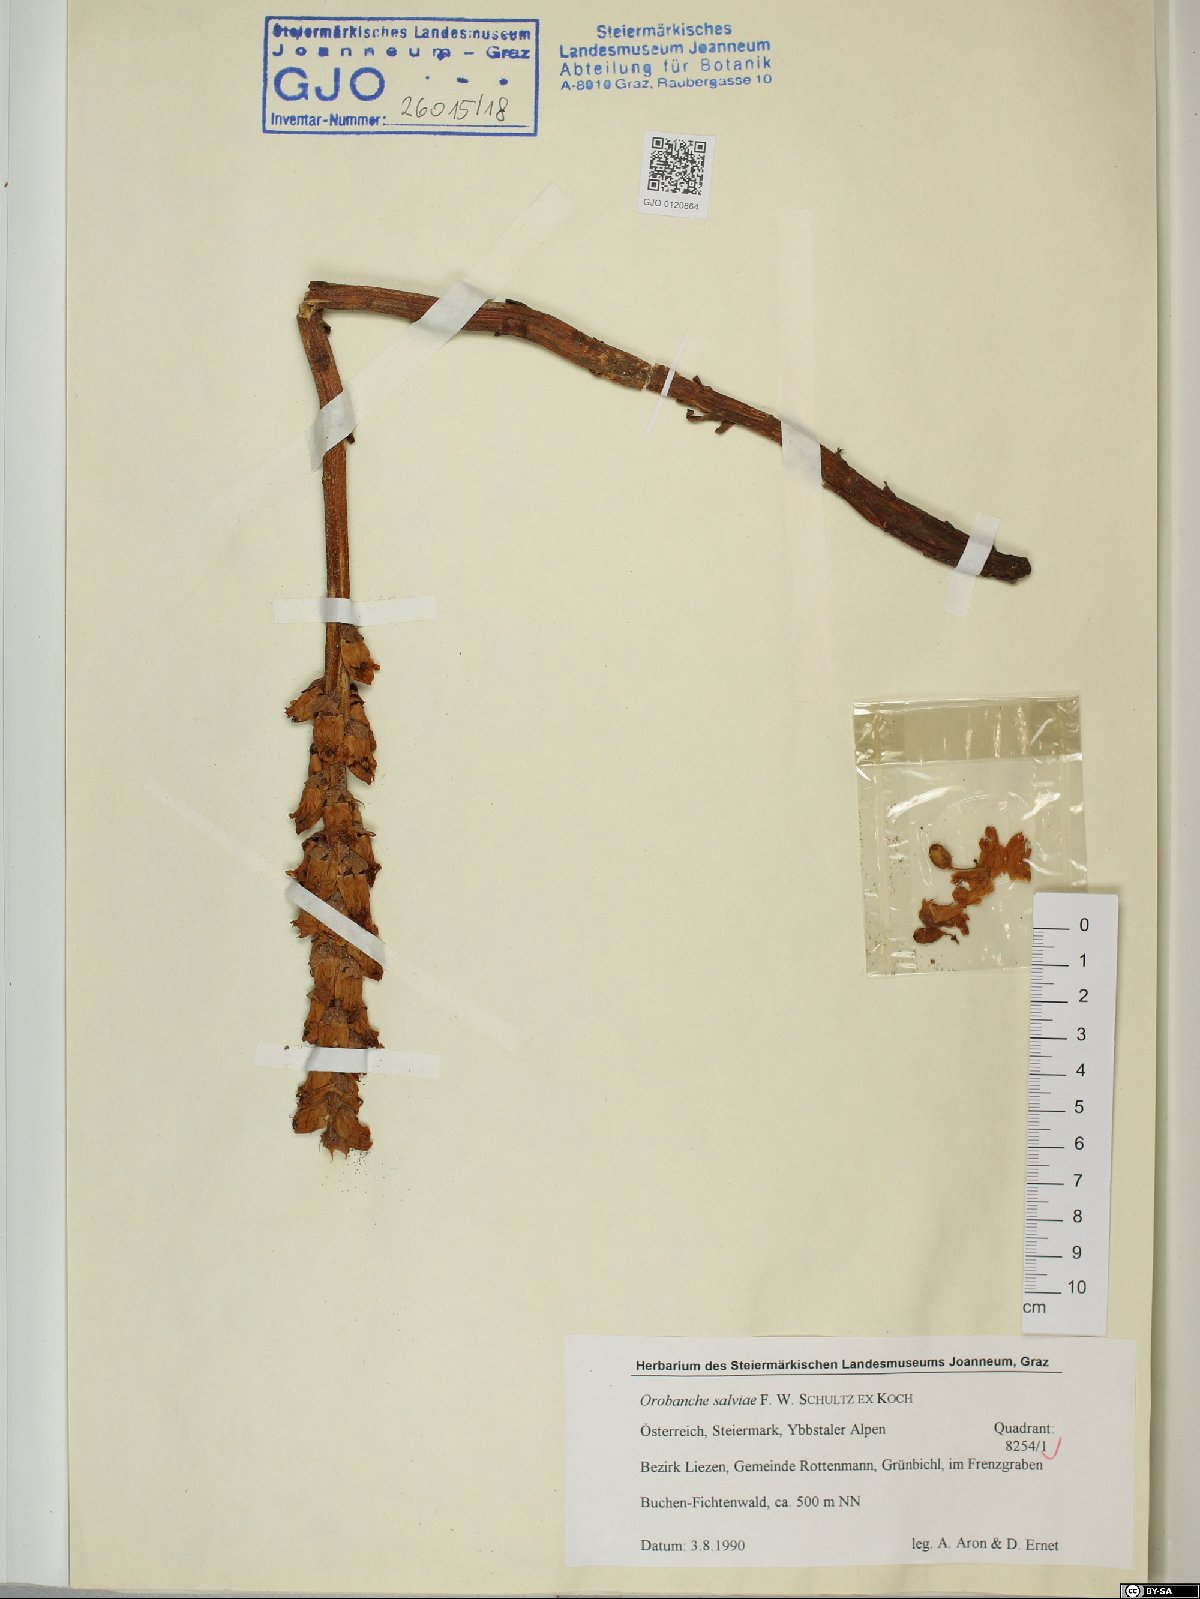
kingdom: Plantae
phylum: Tracheophyta
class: Magnoliopsida
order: Lamiales
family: Orobanchaceae
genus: Orobanche
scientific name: Orobanche salviae
